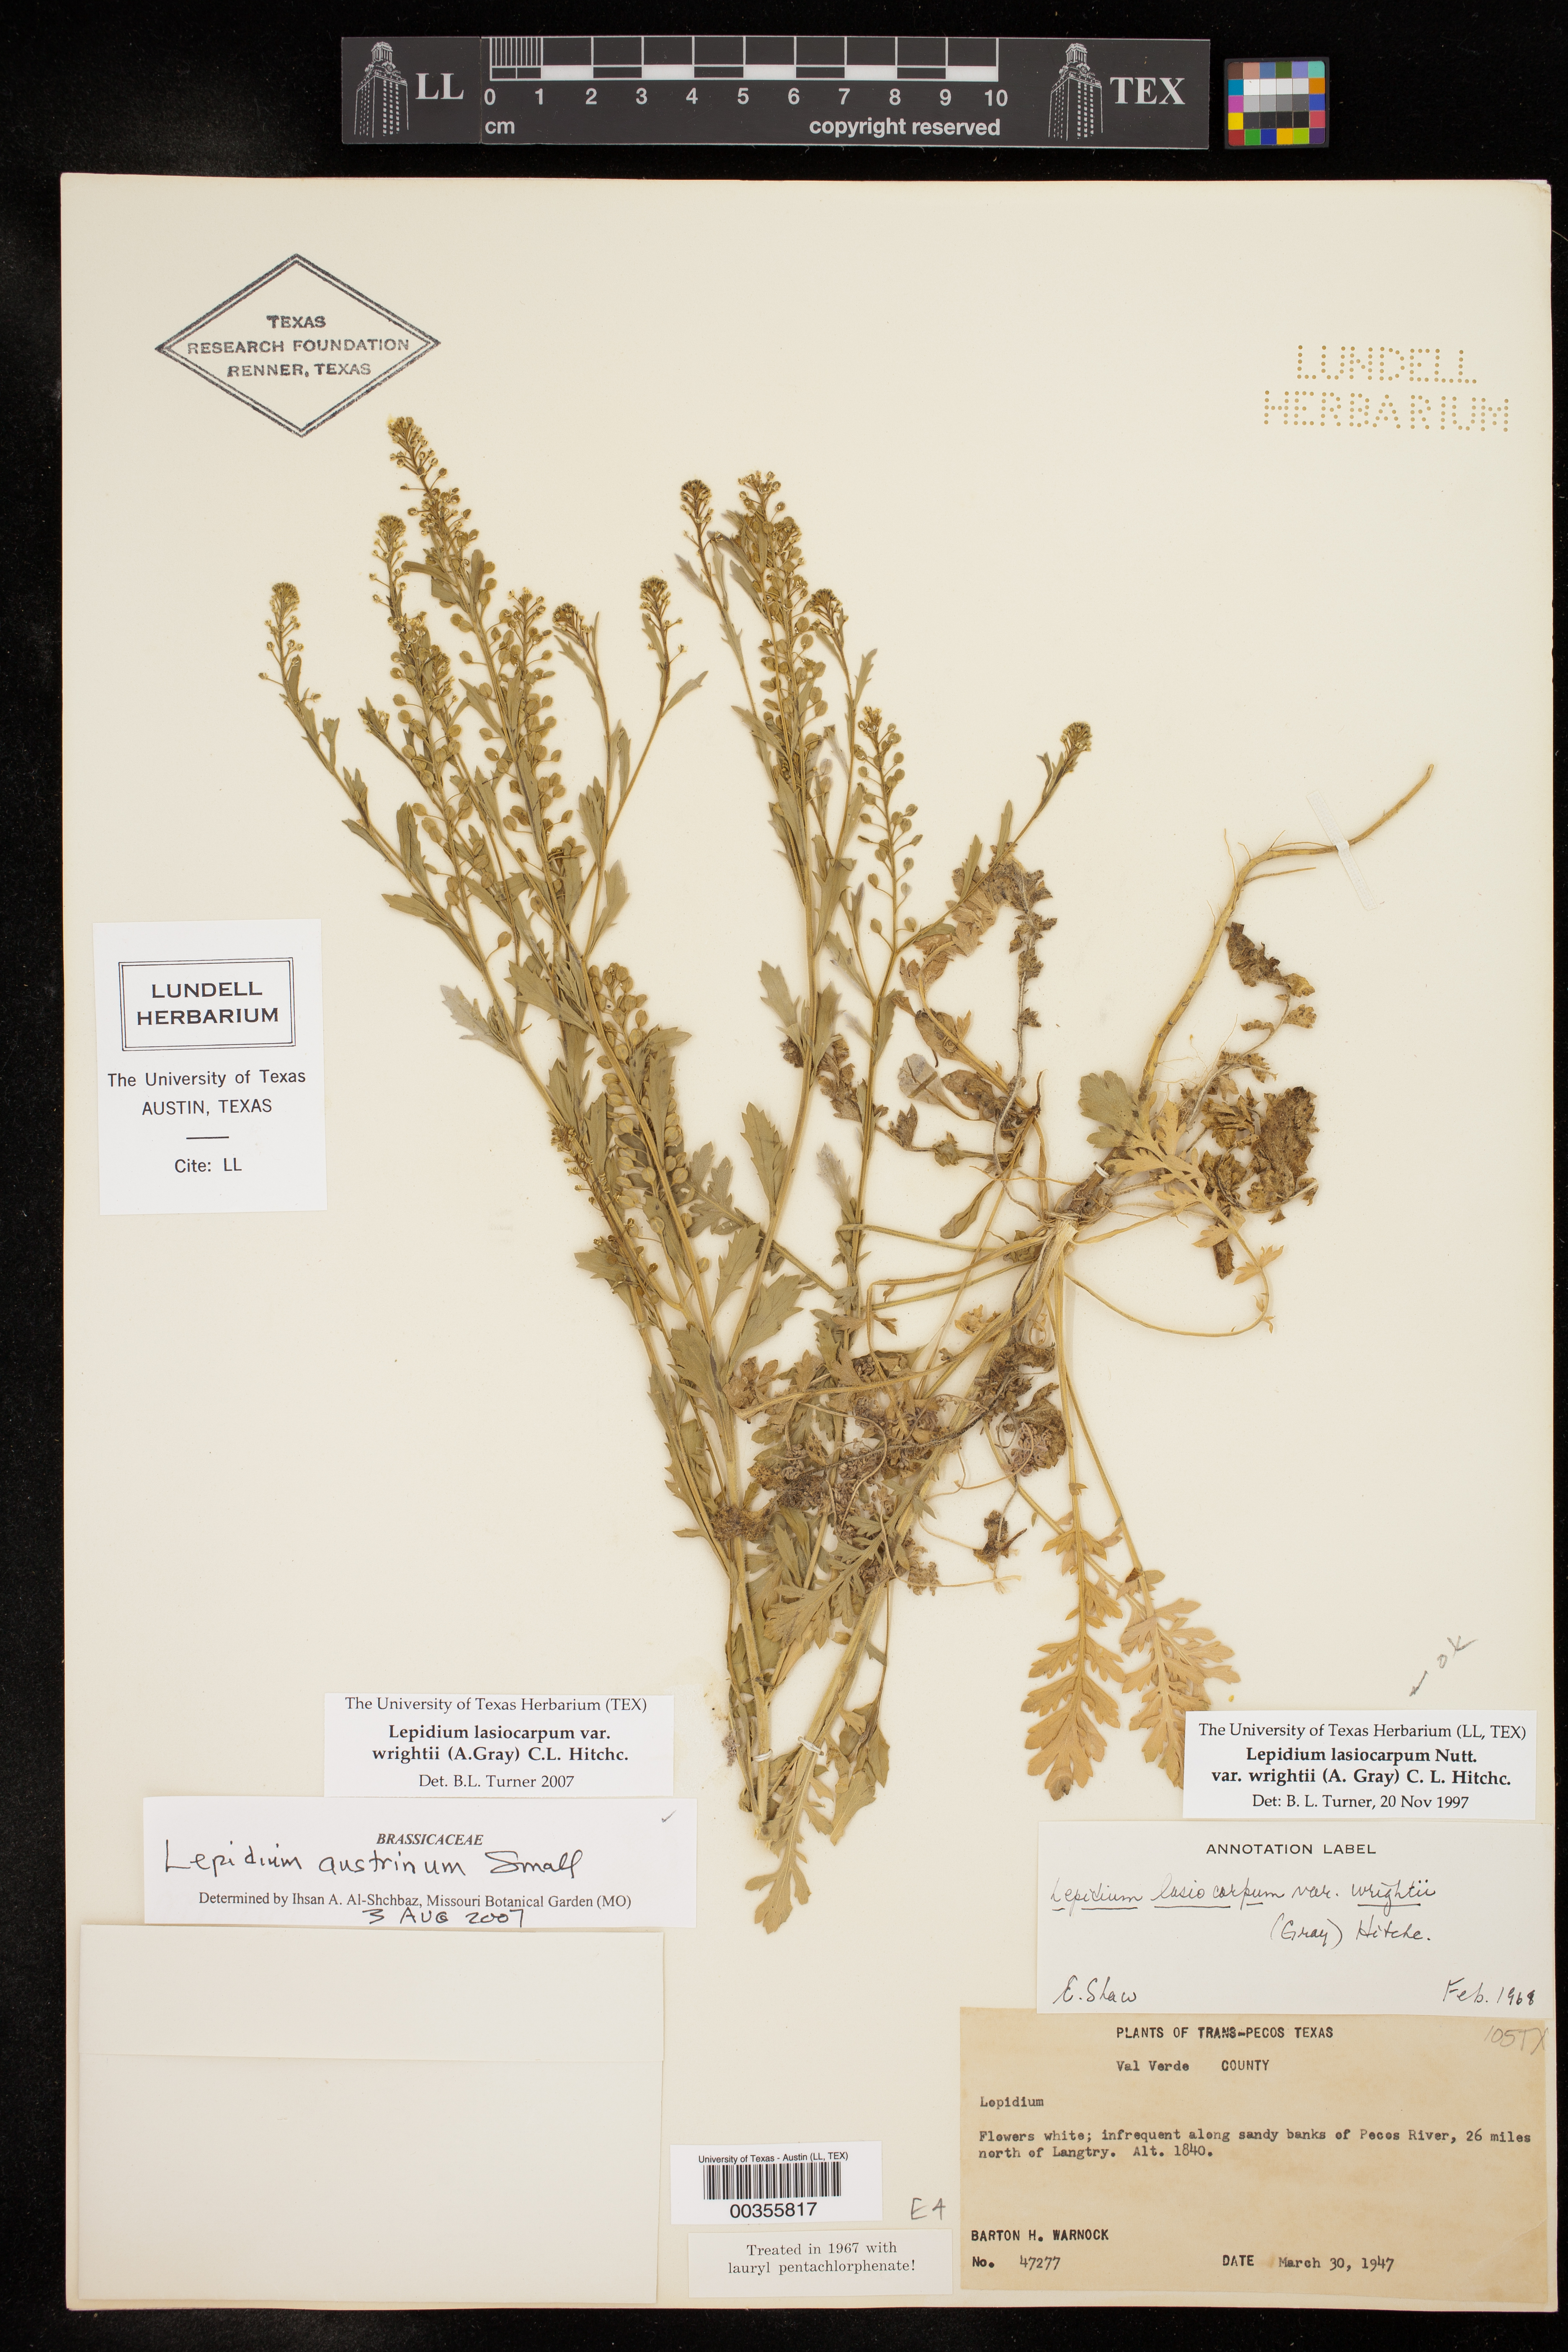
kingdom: Plantae
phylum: Tracheophyta
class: Magnoliopsida
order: Brassicales
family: Brassicaceae
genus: Lepidium
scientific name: Lepidium lasiocarpum
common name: Hairy-pod pepperwort
